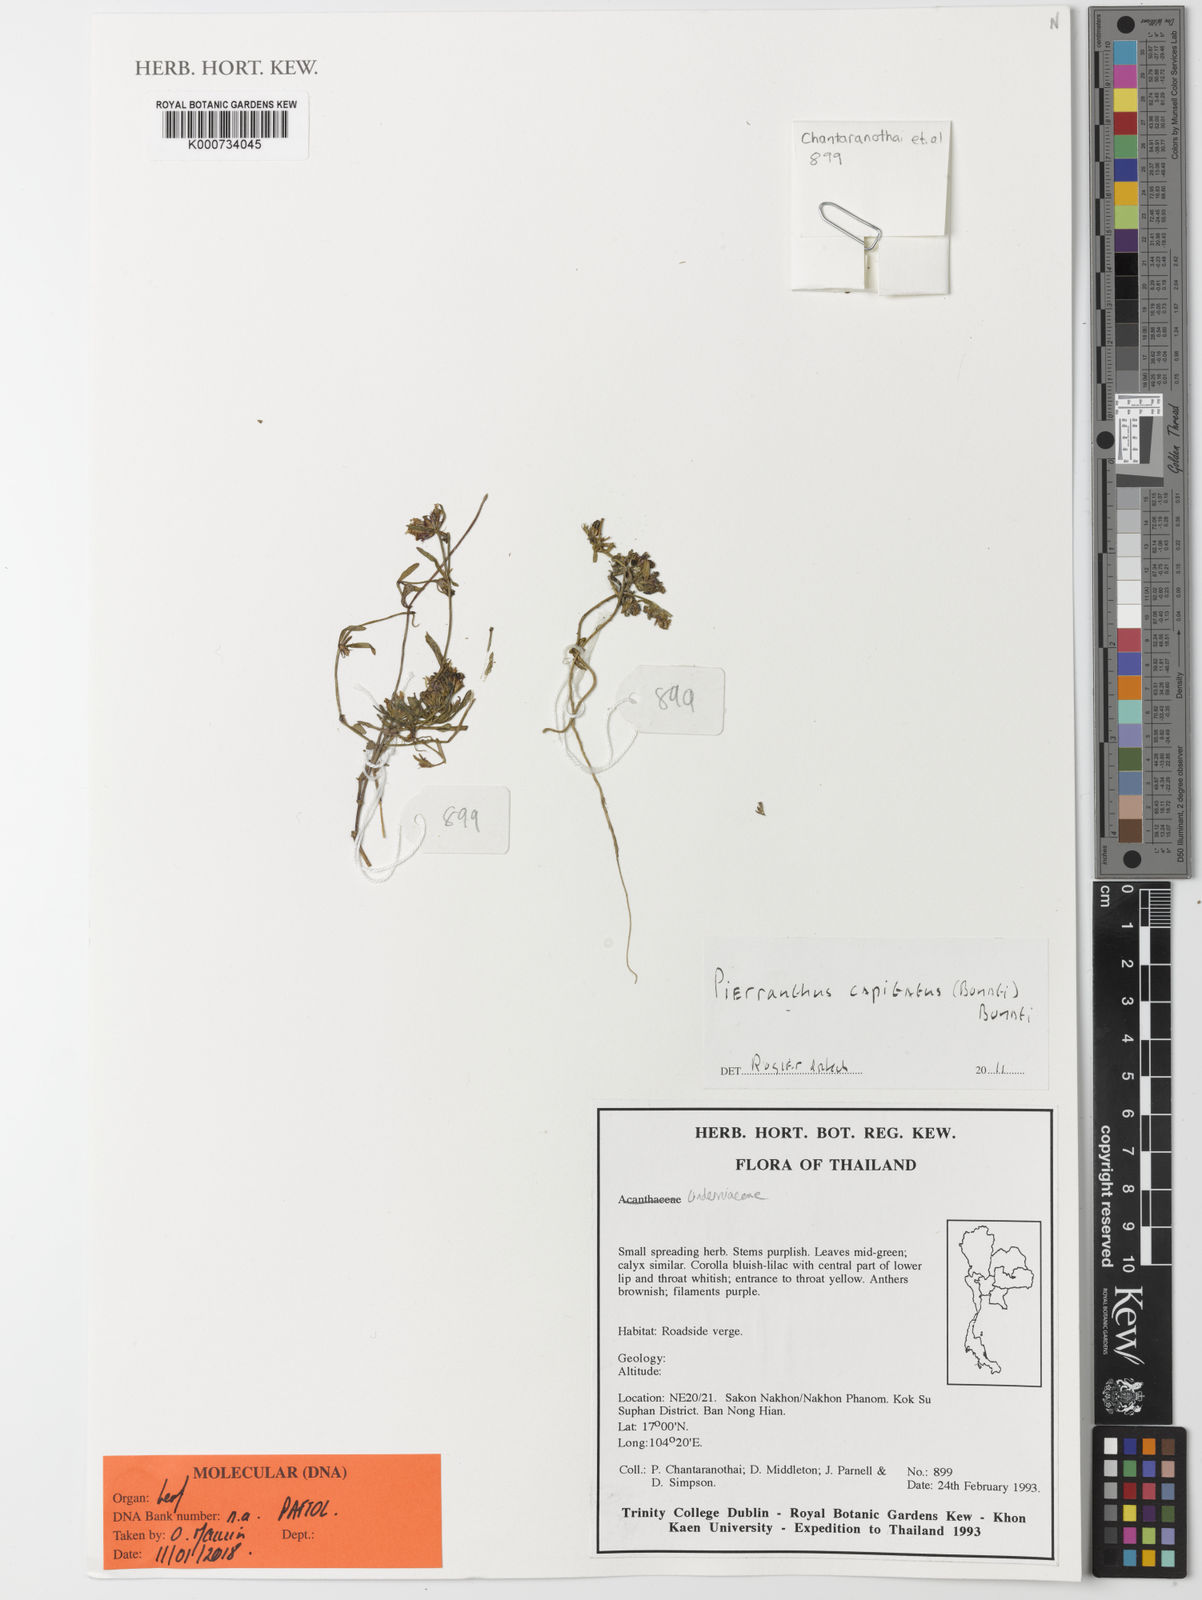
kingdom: Plantae
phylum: Tracheophyta
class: Magnoliopsida
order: Lamiales
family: Linderniaceae
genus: Pierranthus
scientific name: Pierranthus capitatus
